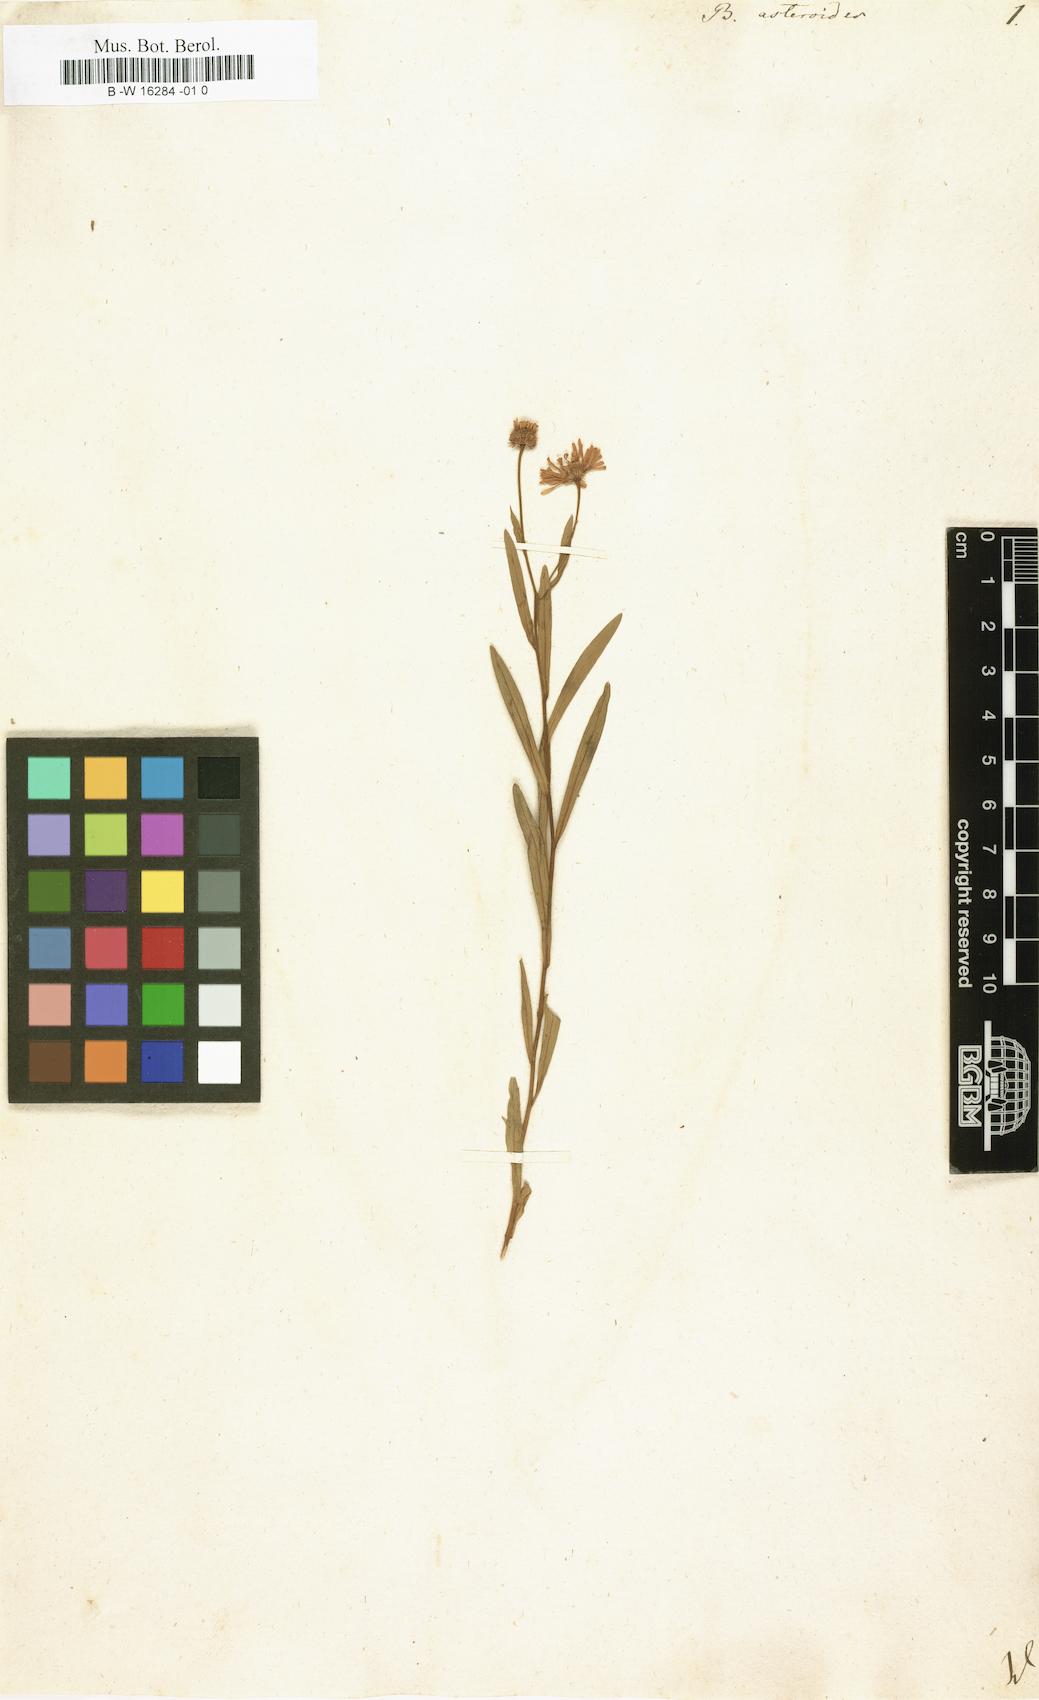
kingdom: Plantae
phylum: Tracheophyta
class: Magnoliopsida
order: Asterales
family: Asteraceae
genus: Boltonia
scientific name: Boltonia asteroides
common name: False chamomile
